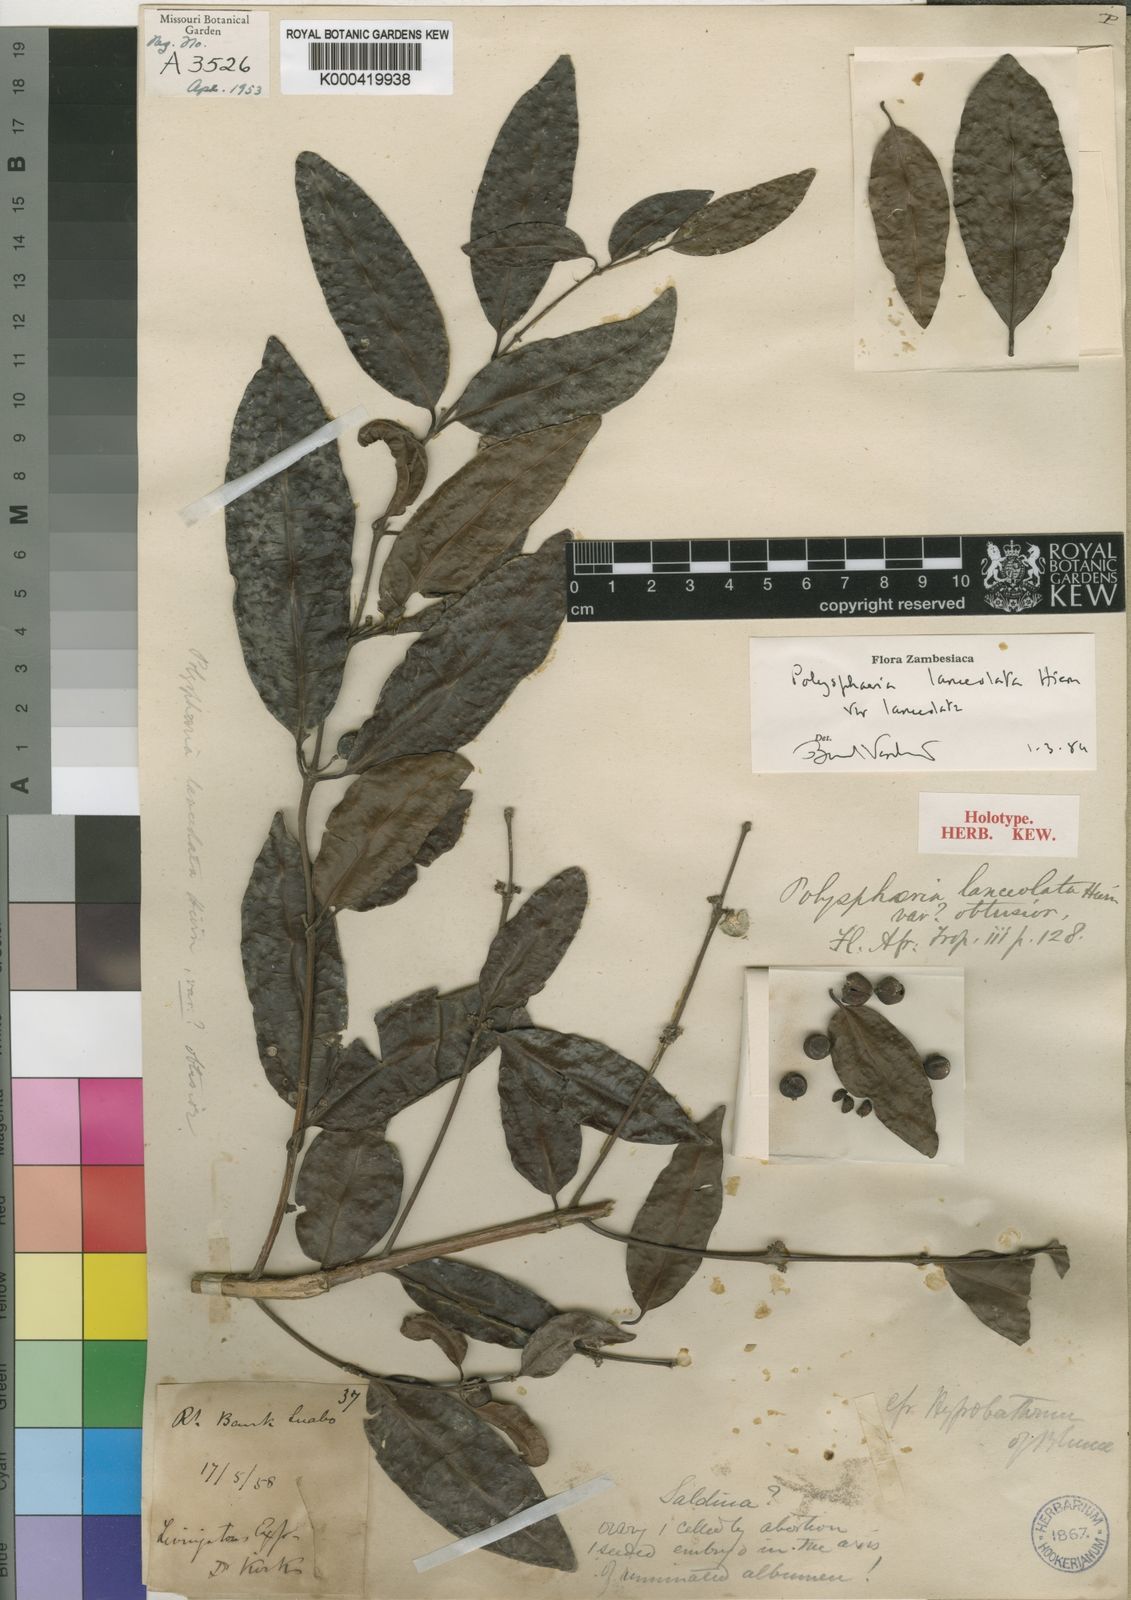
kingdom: Plantae
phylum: Tracheophyta
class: Magnoliopsida
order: Gentianales
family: Rubiaceae
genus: Polysphaeria
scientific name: Polysphaeria lanceolata
